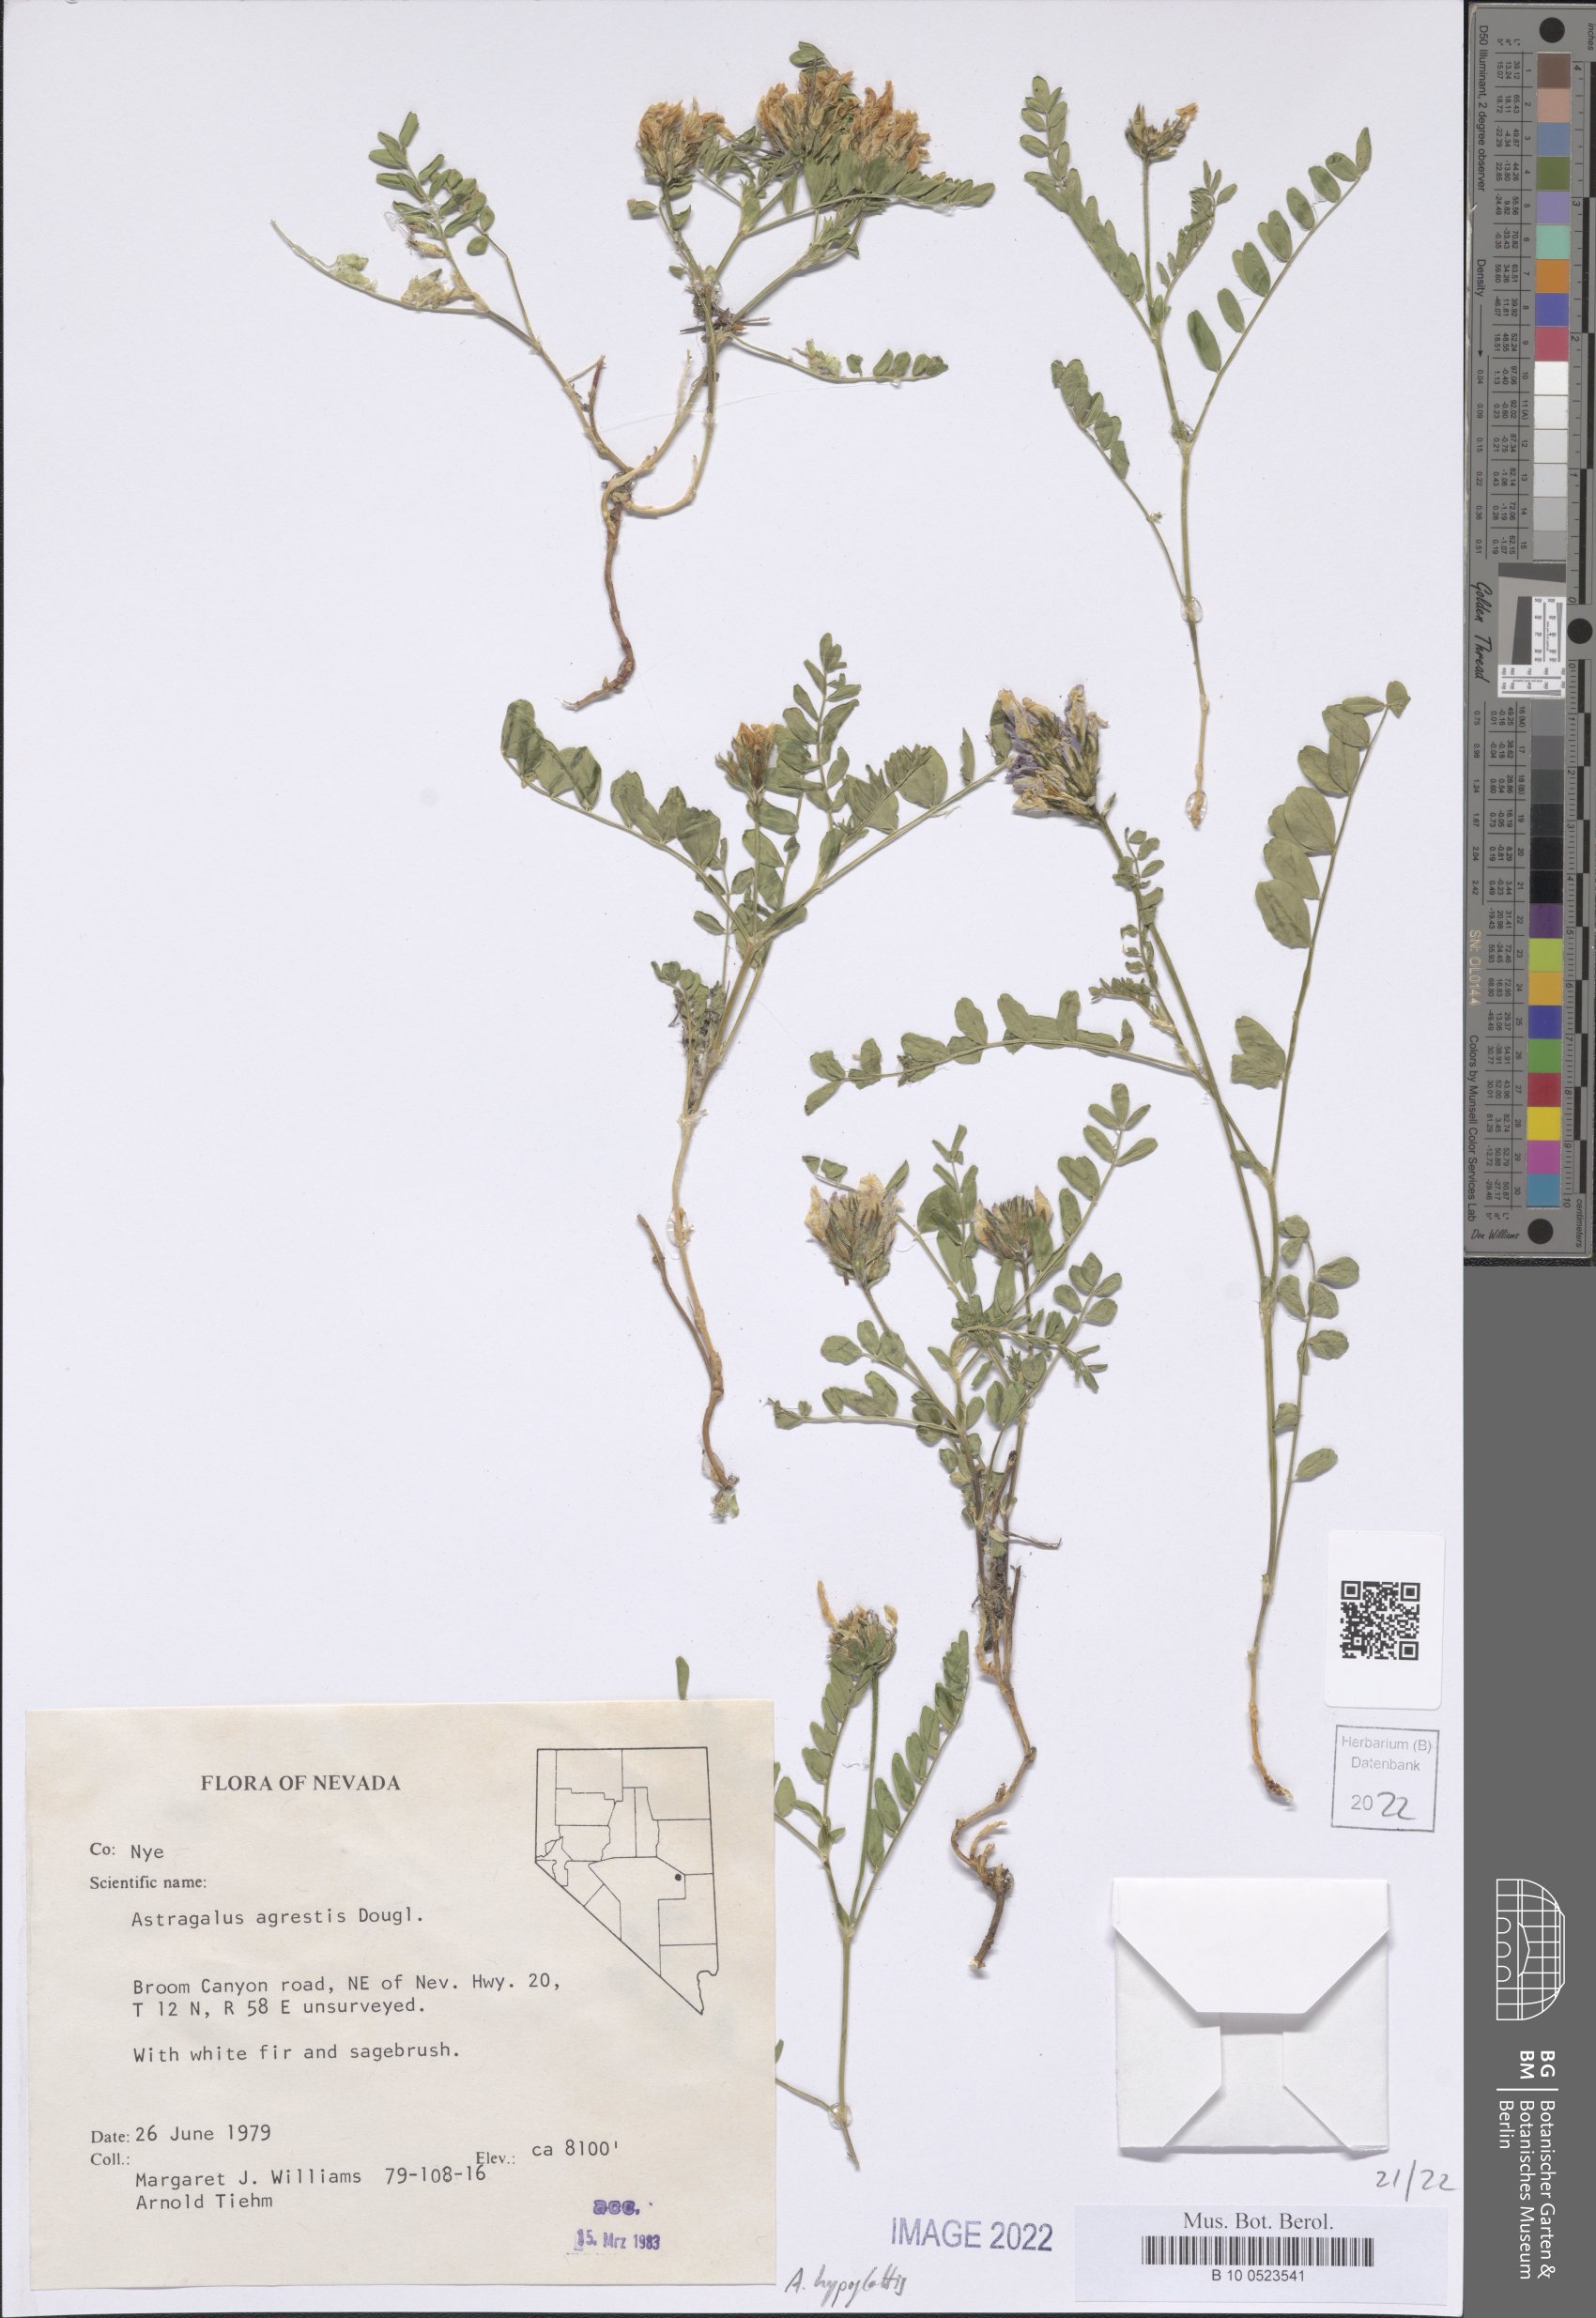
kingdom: Plantae
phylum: Tracheophyta
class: Magnoliopsida
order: Fabales
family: Fabaceae
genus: Astragalus
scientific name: Astragalus hypoglottis
